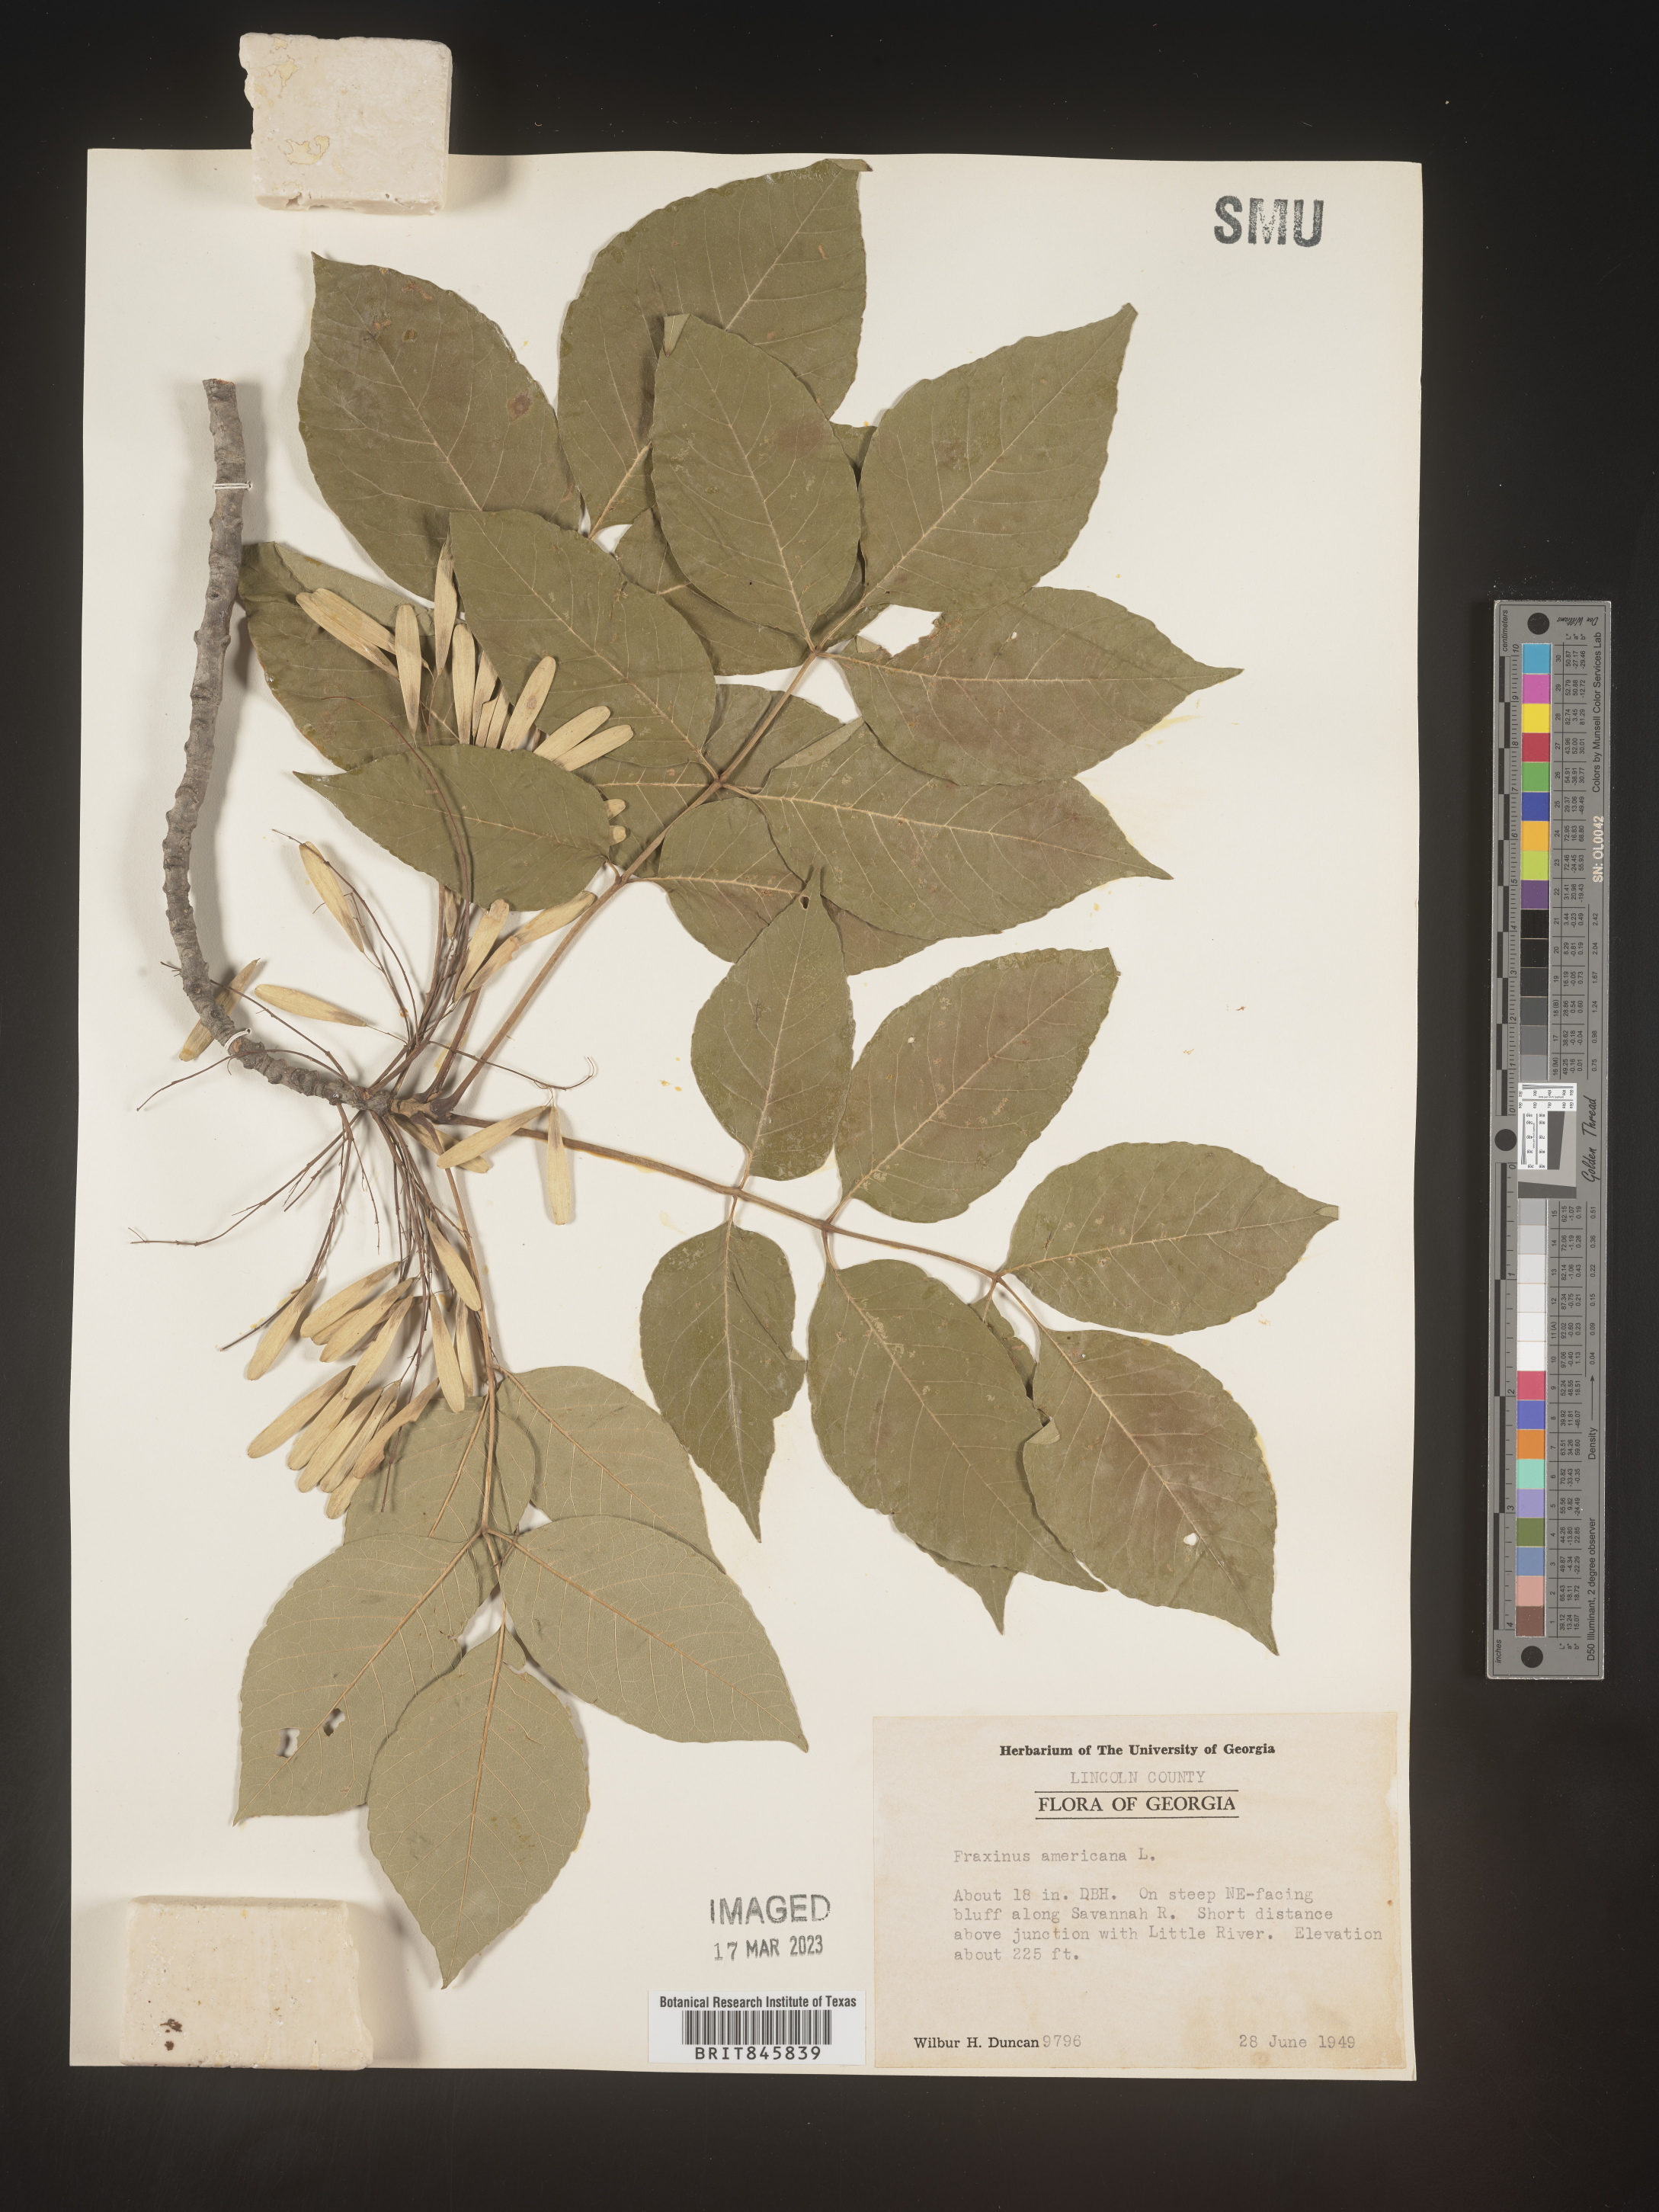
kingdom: Plantae
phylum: Tracheophyta
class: Magnoliopsida
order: Lamiales
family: Oleaceae
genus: Fraxinus
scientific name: Fraxinus americana
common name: White ash
